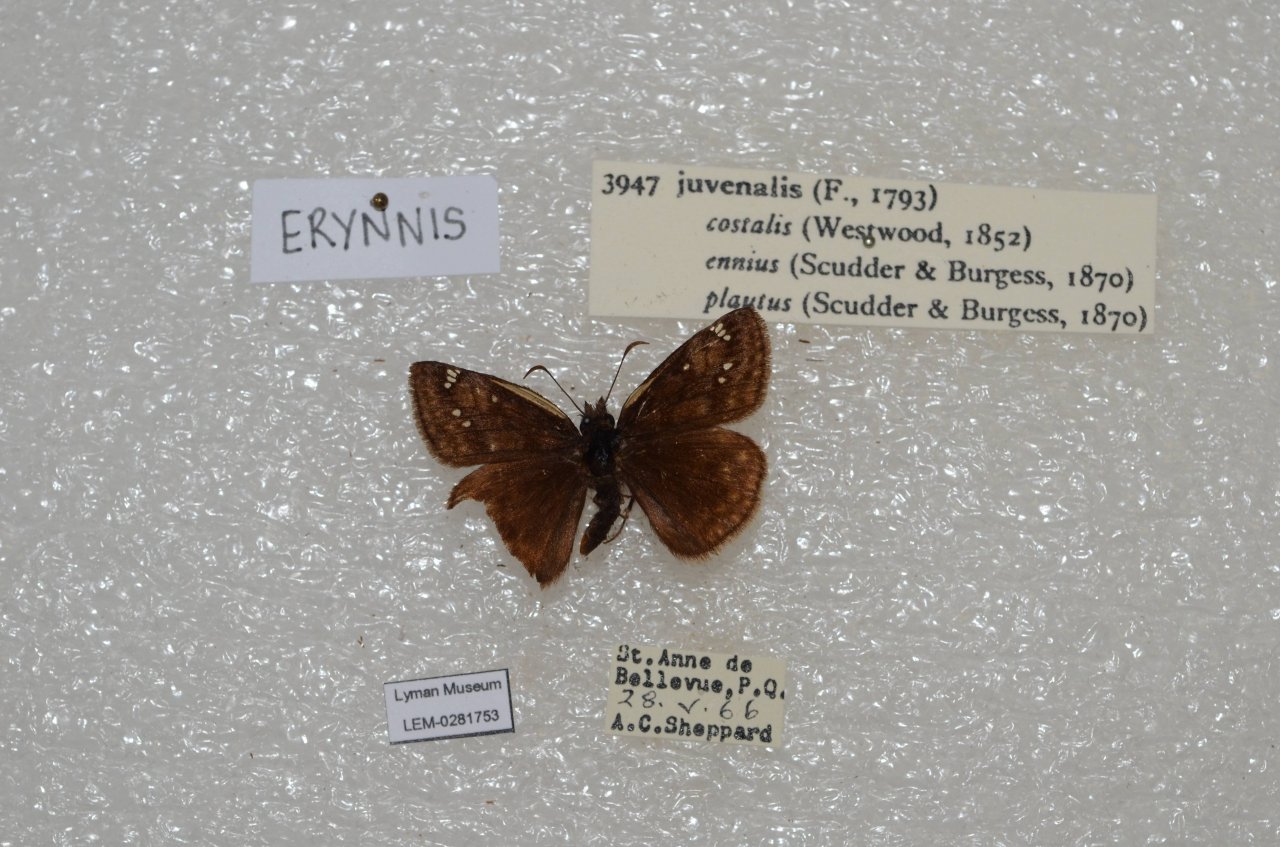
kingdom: Animalia
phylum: Arthropoda
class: Insecta
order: Lepidoptera
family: Hesperiidae
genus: Gesta
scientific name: Gesta
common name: Juvenal's Duskywing
